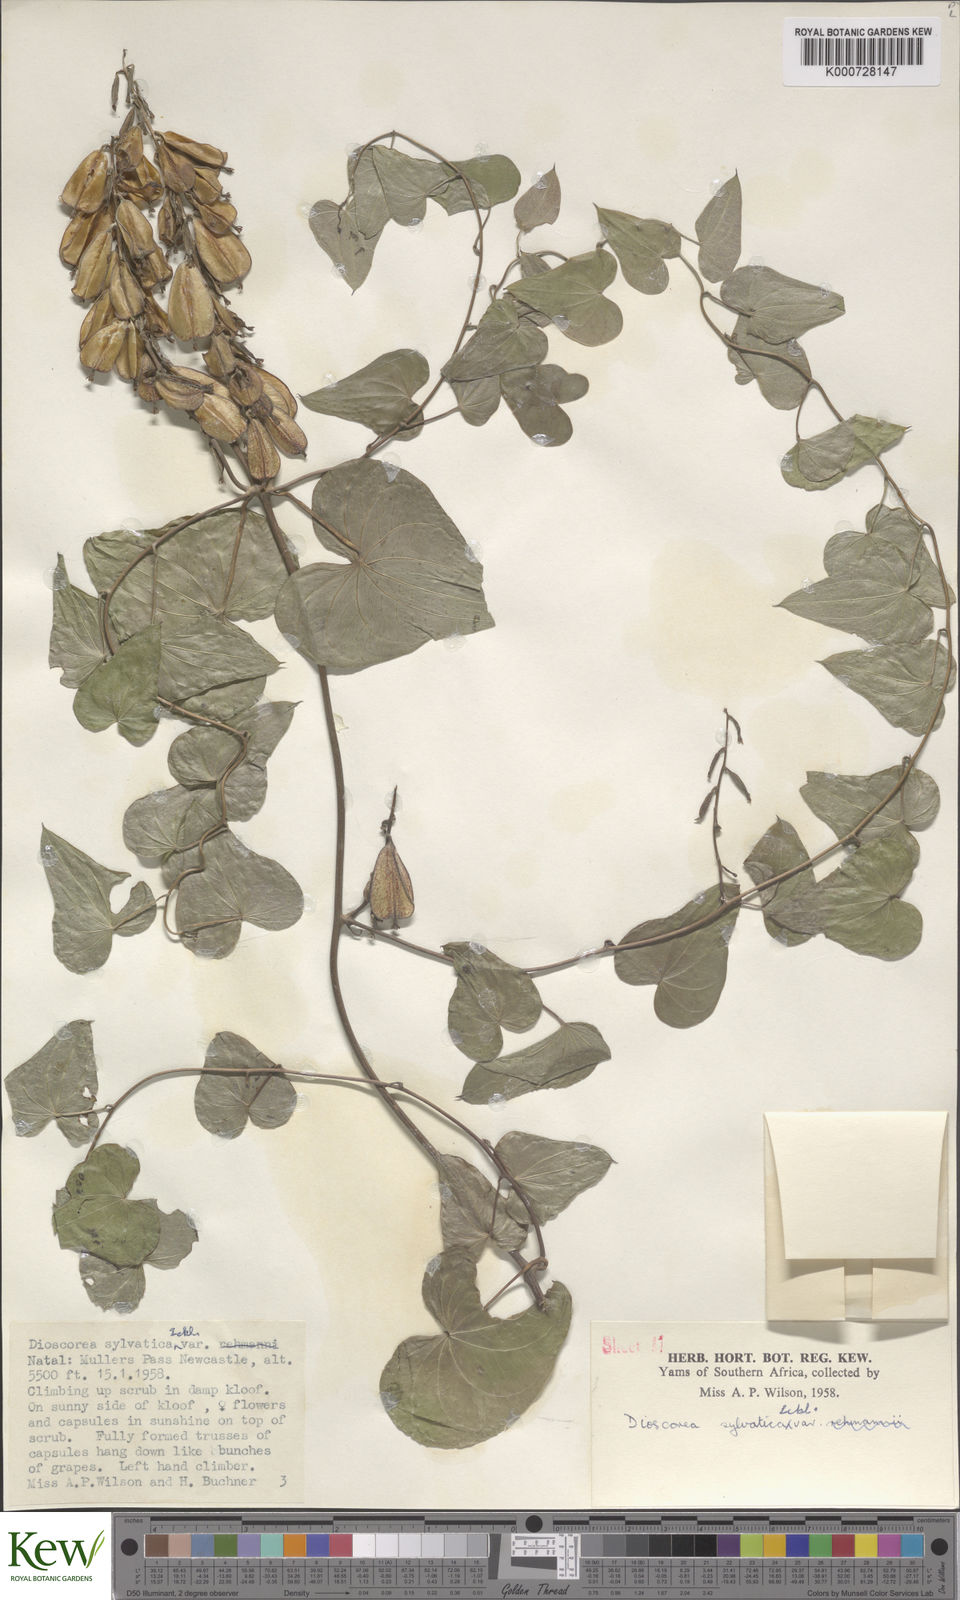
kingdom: Plantae
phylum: Tracheophyta
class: Liliopsida
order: Dioscoreales
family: Dioscoreaceae
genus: Dioscorea
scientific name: Dioscorea sylvatica
